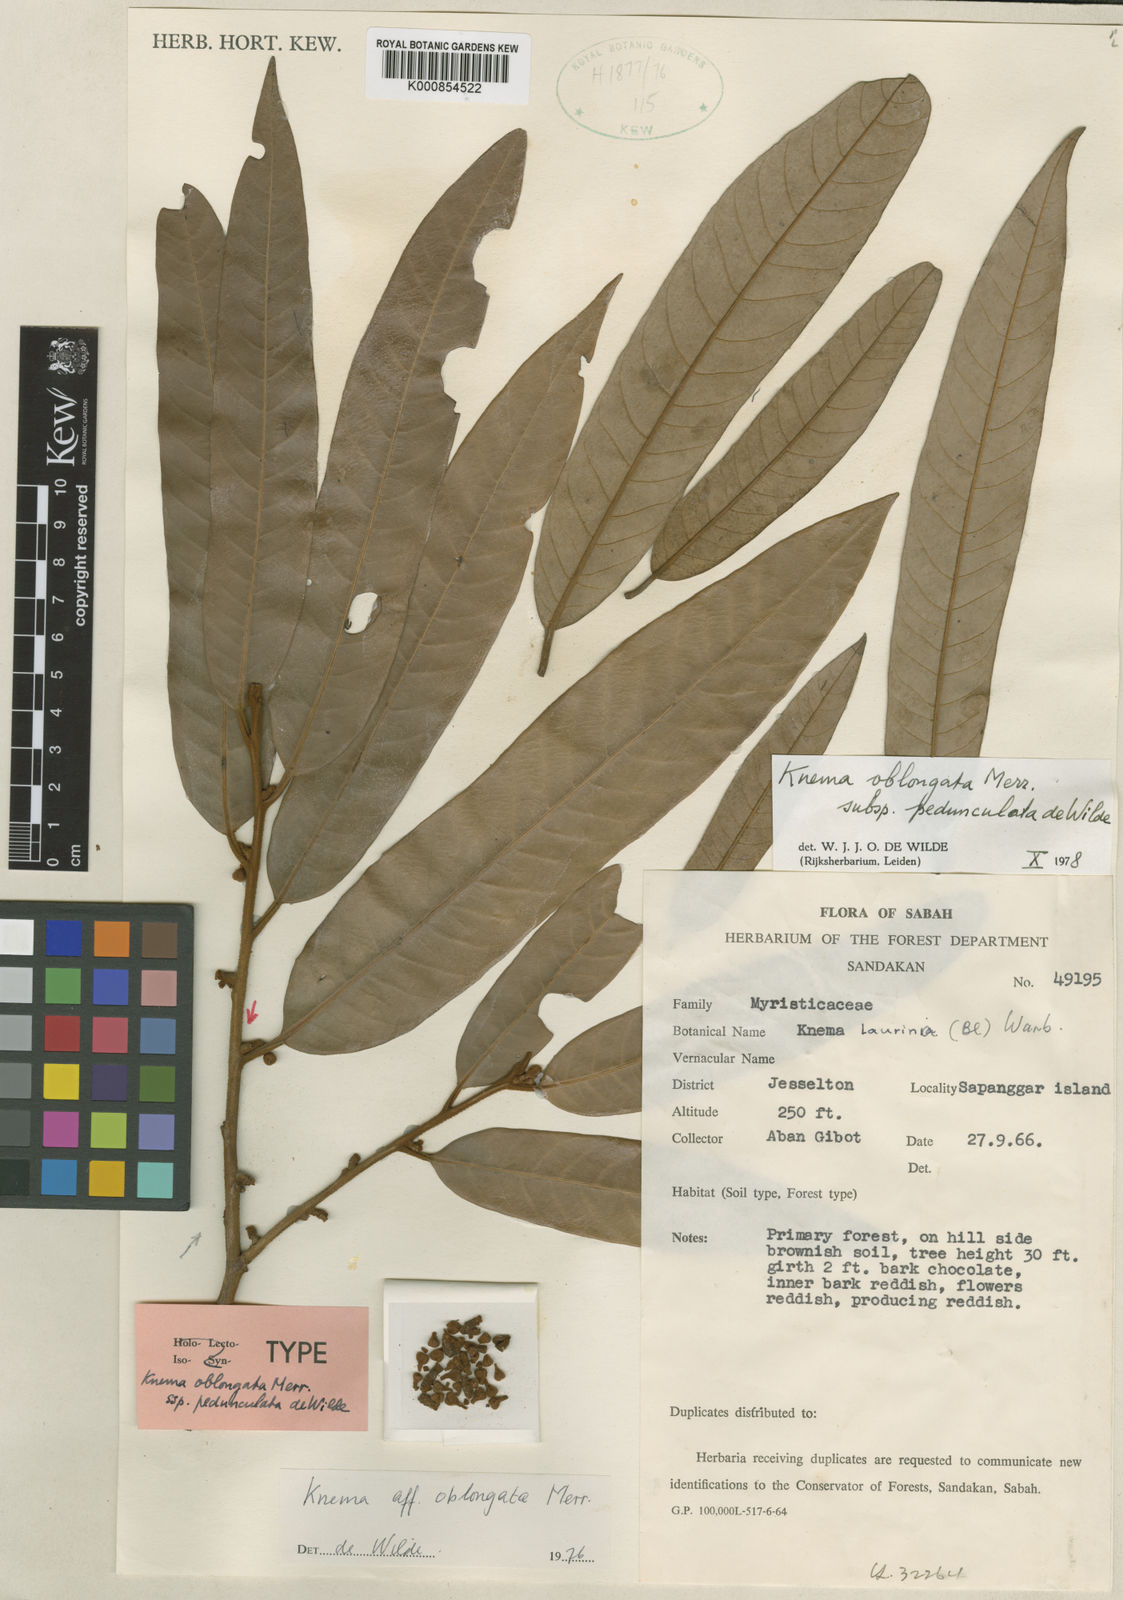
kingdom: Plantae
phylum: Tracheophyta
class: Magnoliopsida
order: Magnoliales
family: Myristicaceae
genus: Knema
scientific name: Knema oblongata
